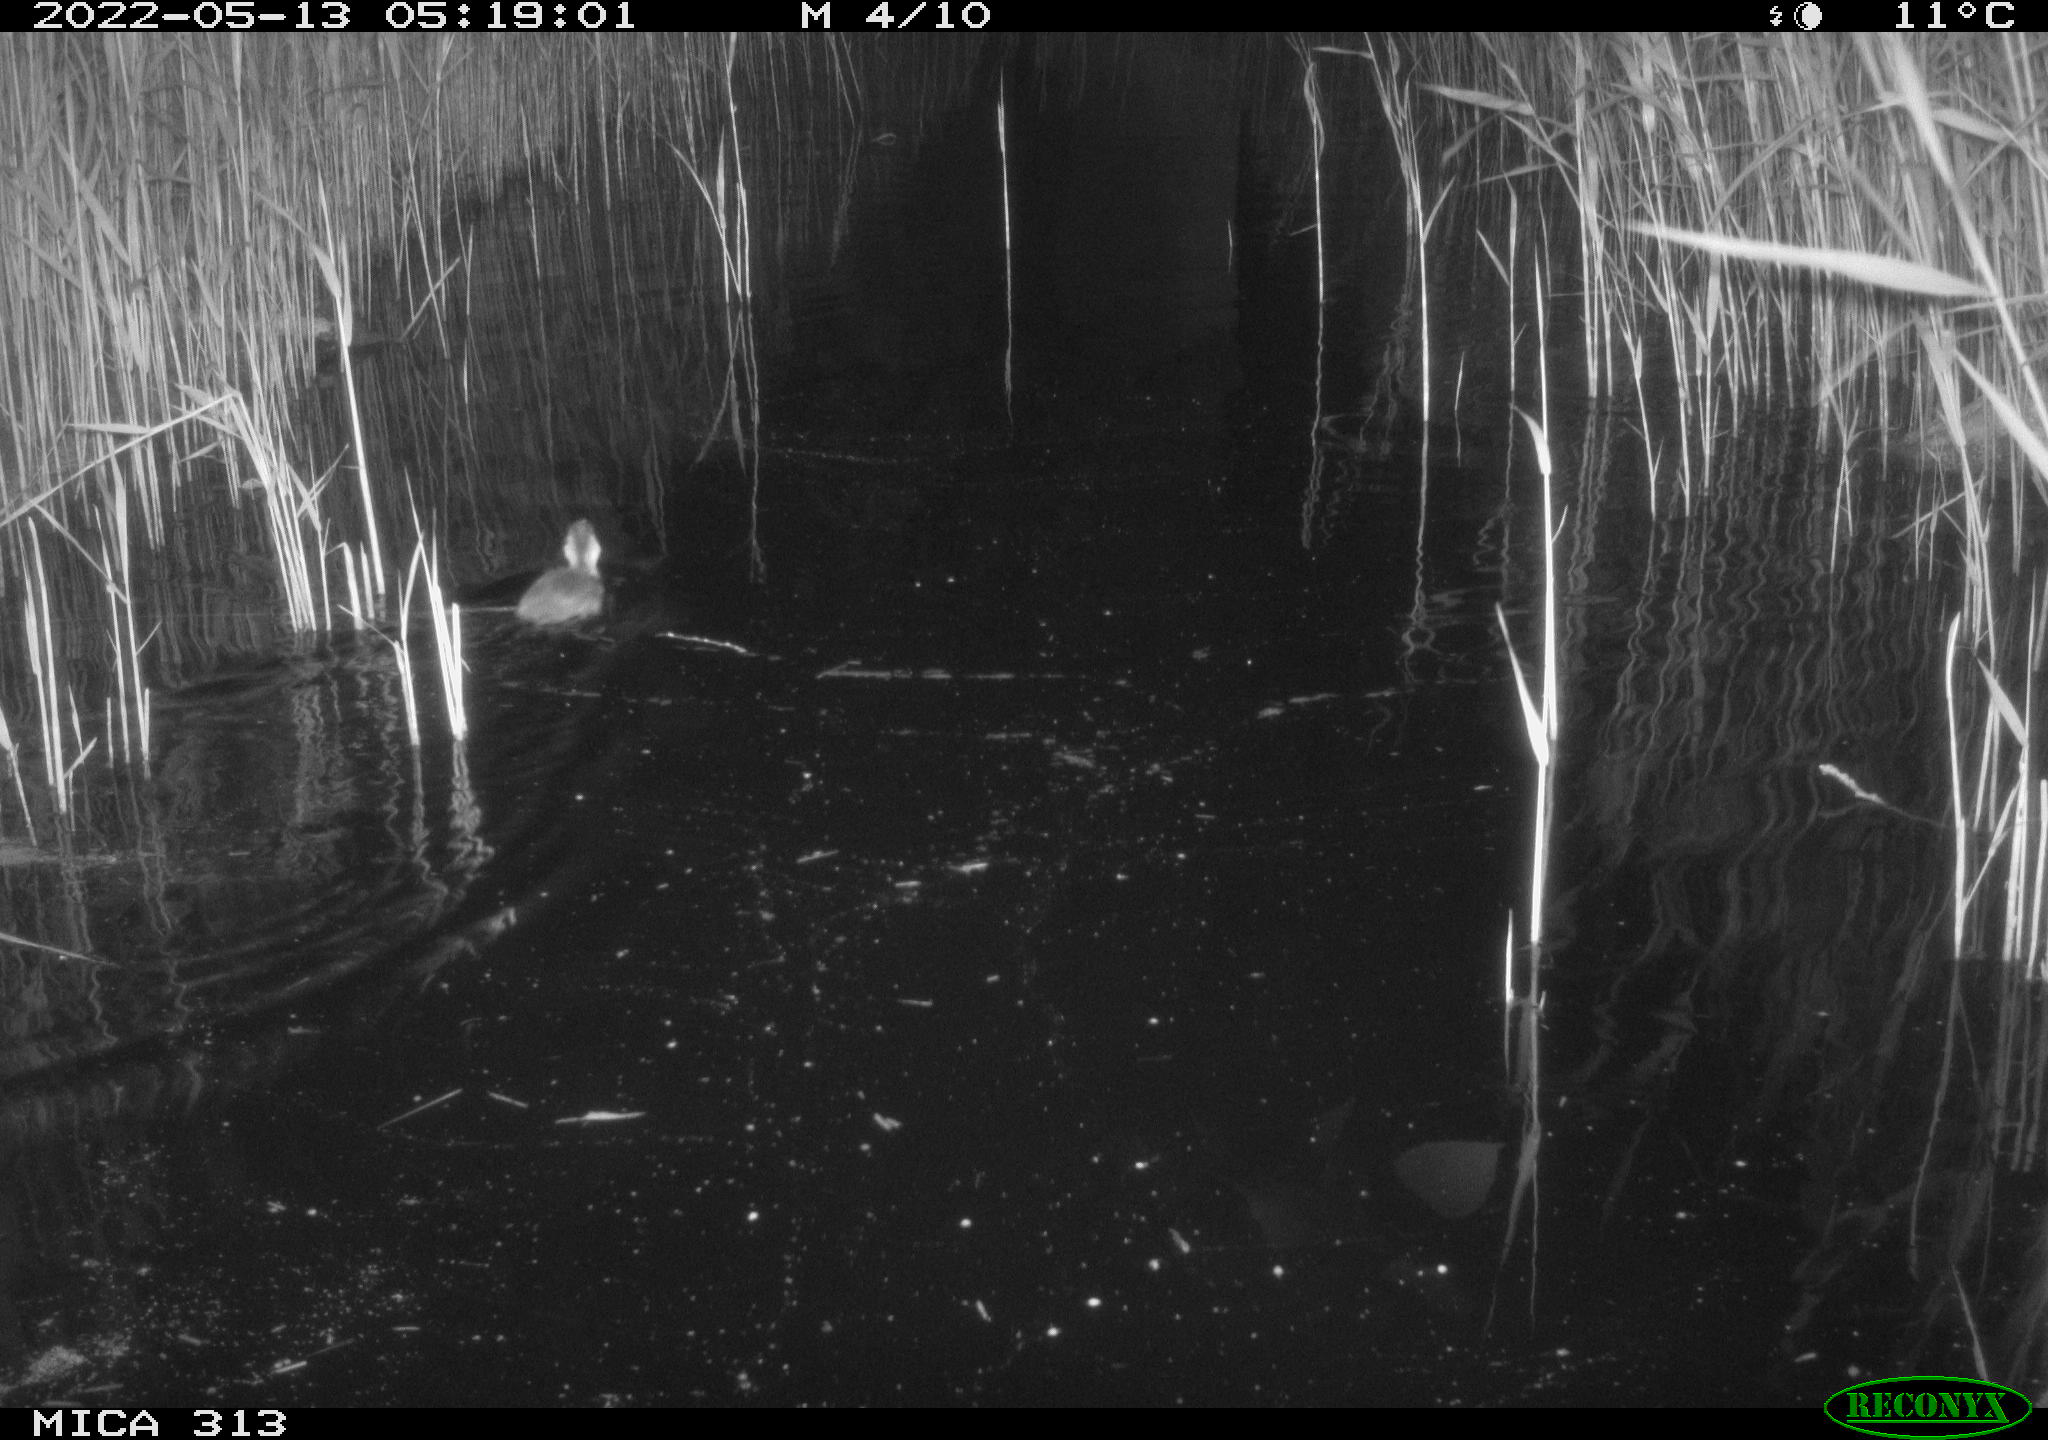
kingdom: Animalia
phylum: Chordata
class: Aves
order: Anseriformes
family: Anatidae
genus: Anas
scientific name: Anas platyrhynchos
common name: Mallard
